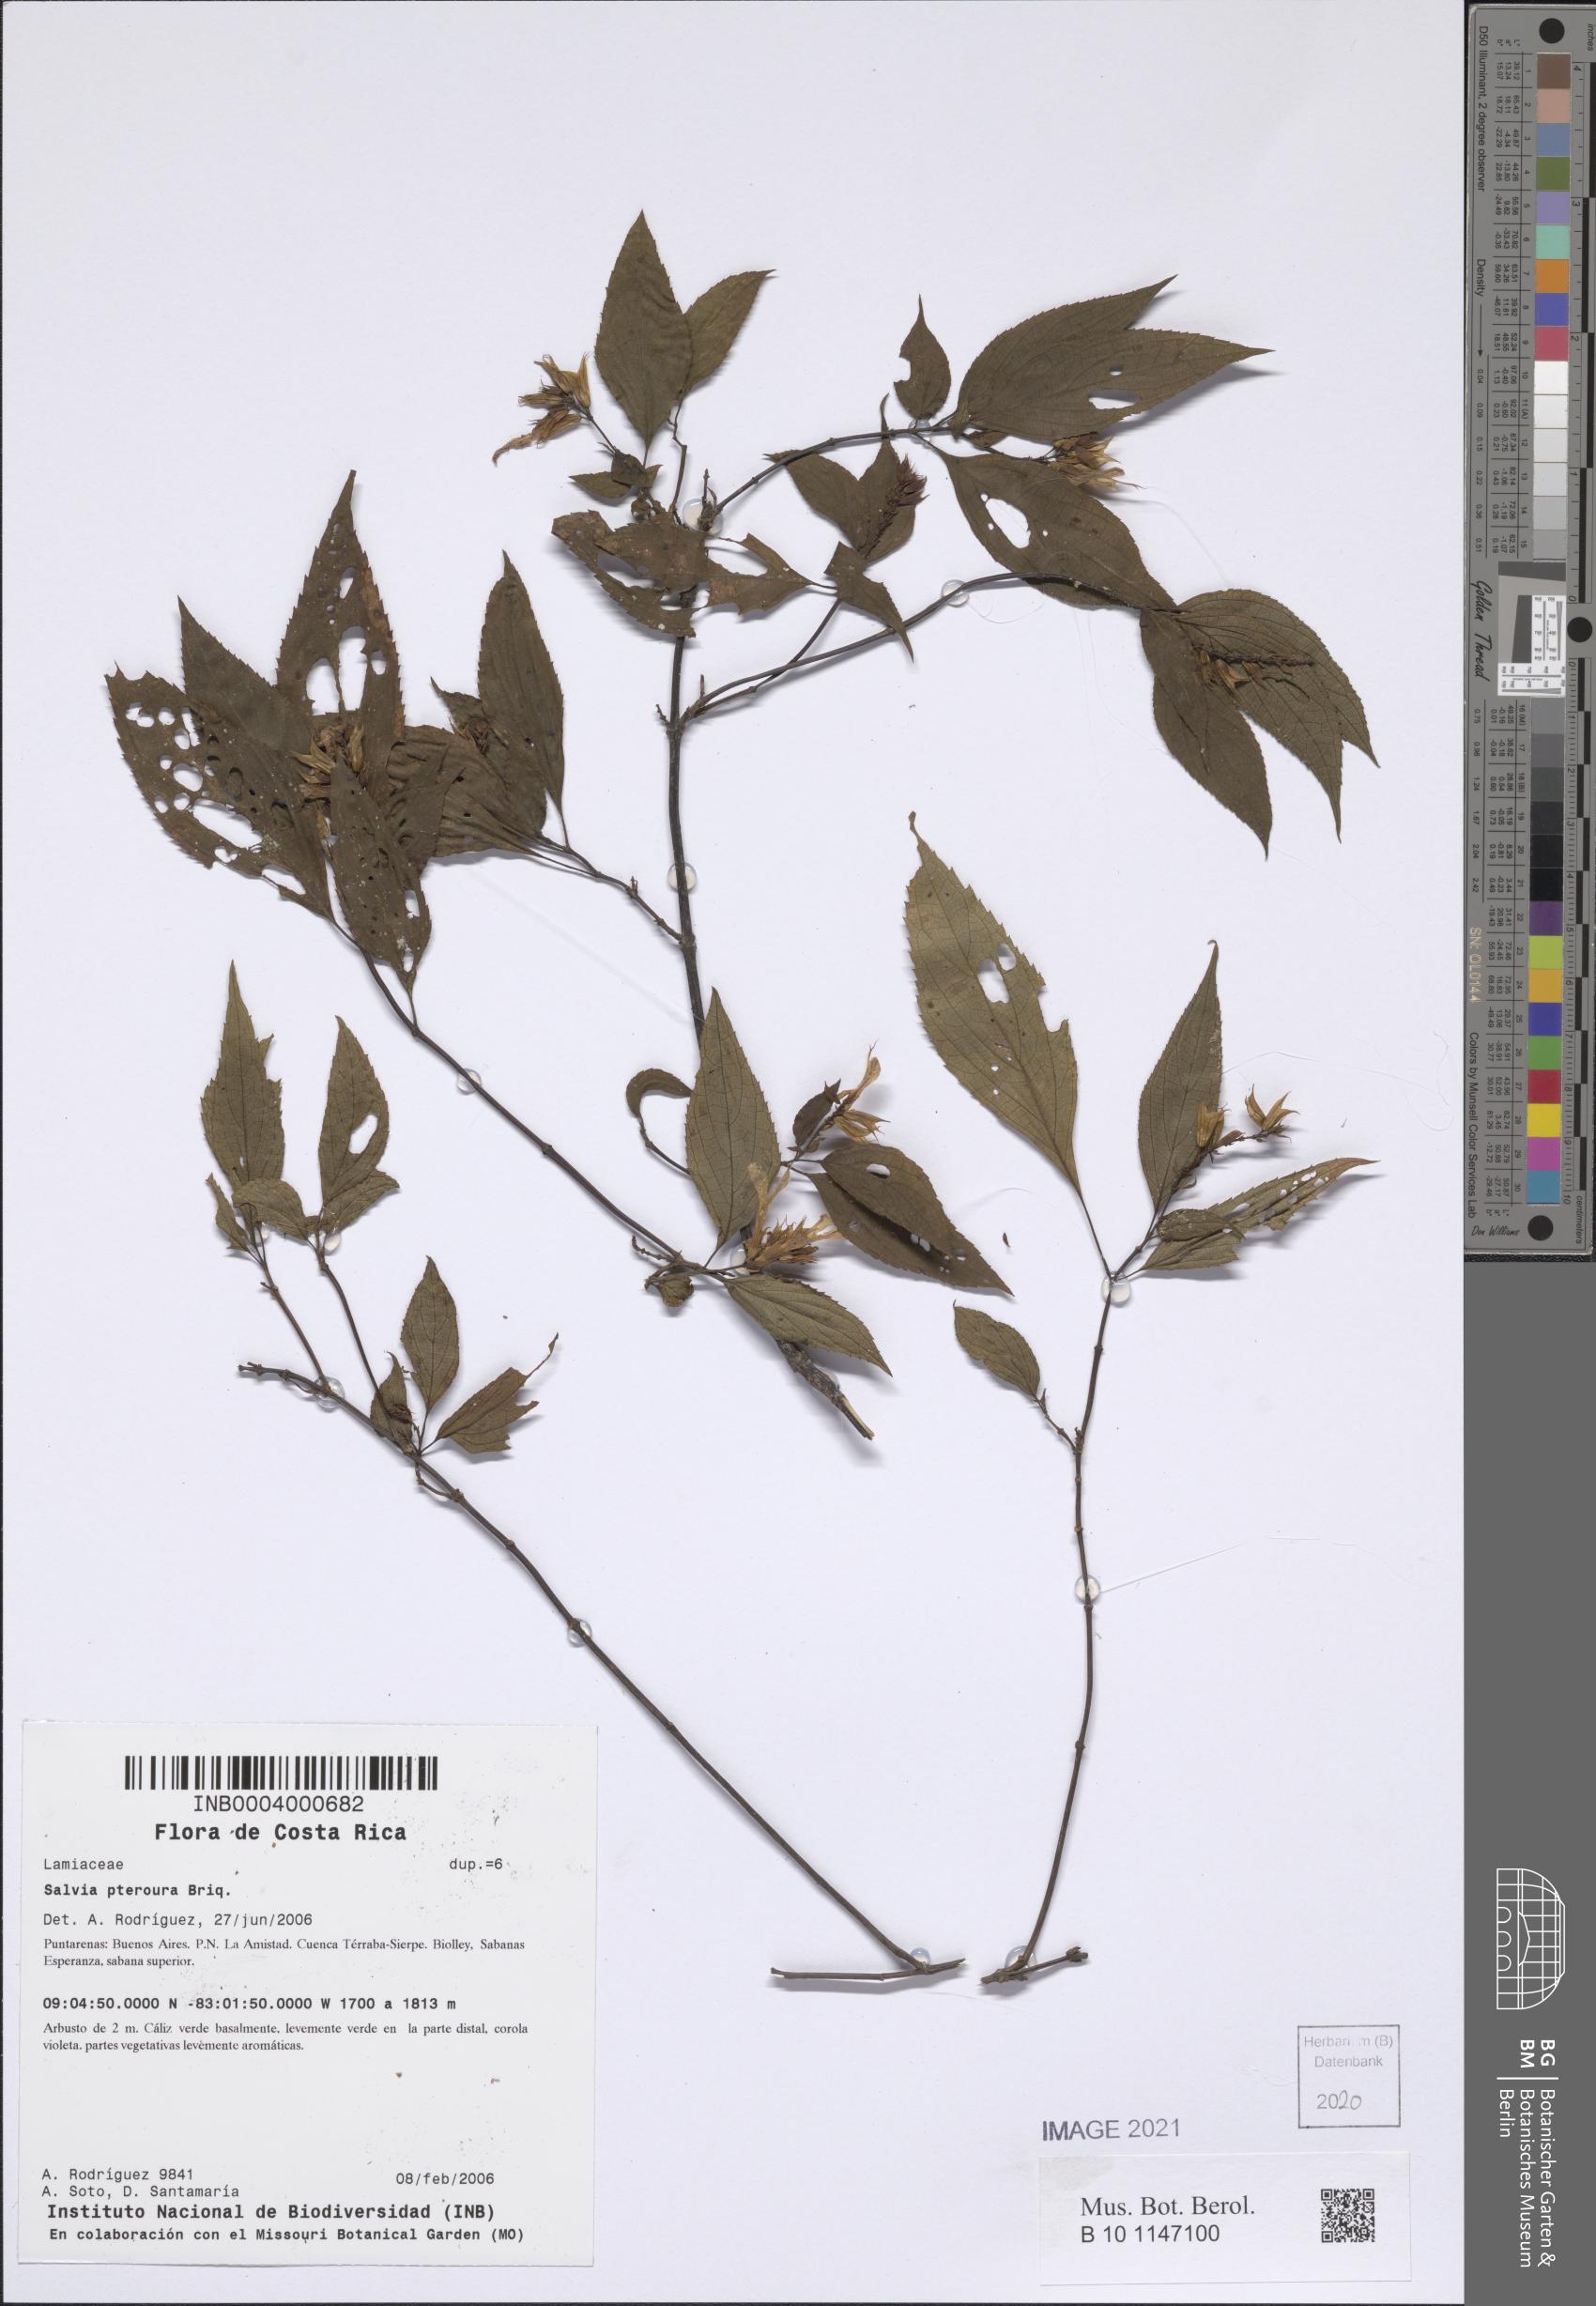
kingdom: Plantae
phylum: Tracheophyta
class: Magnoliopsida
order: Lamiales
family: Lamiaceae
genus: Salvia
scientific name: Salvia pteroura
